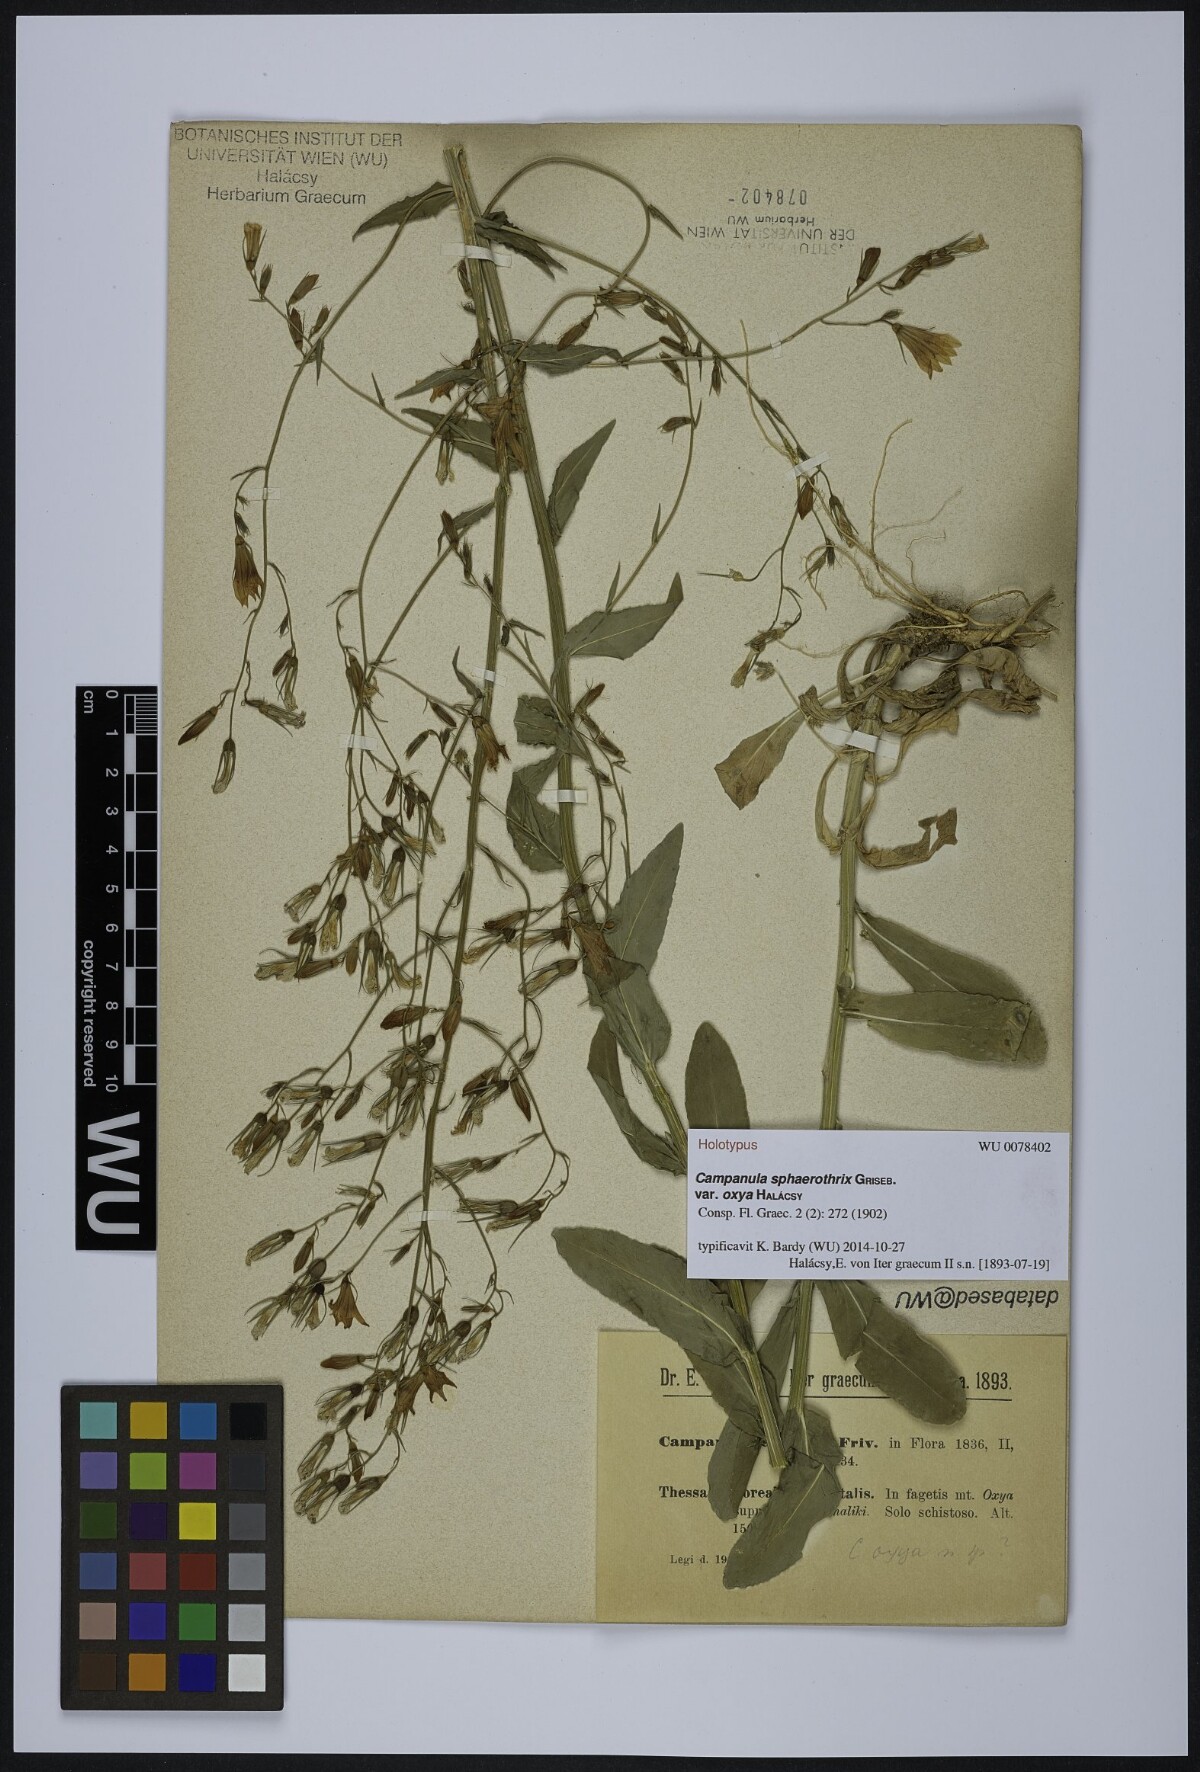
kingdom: Plantae
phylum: Tracheophyta
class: Magnoliopsida
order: Asterales
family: Campanulaceae
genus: Campanula
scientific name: Campanula sparsa
